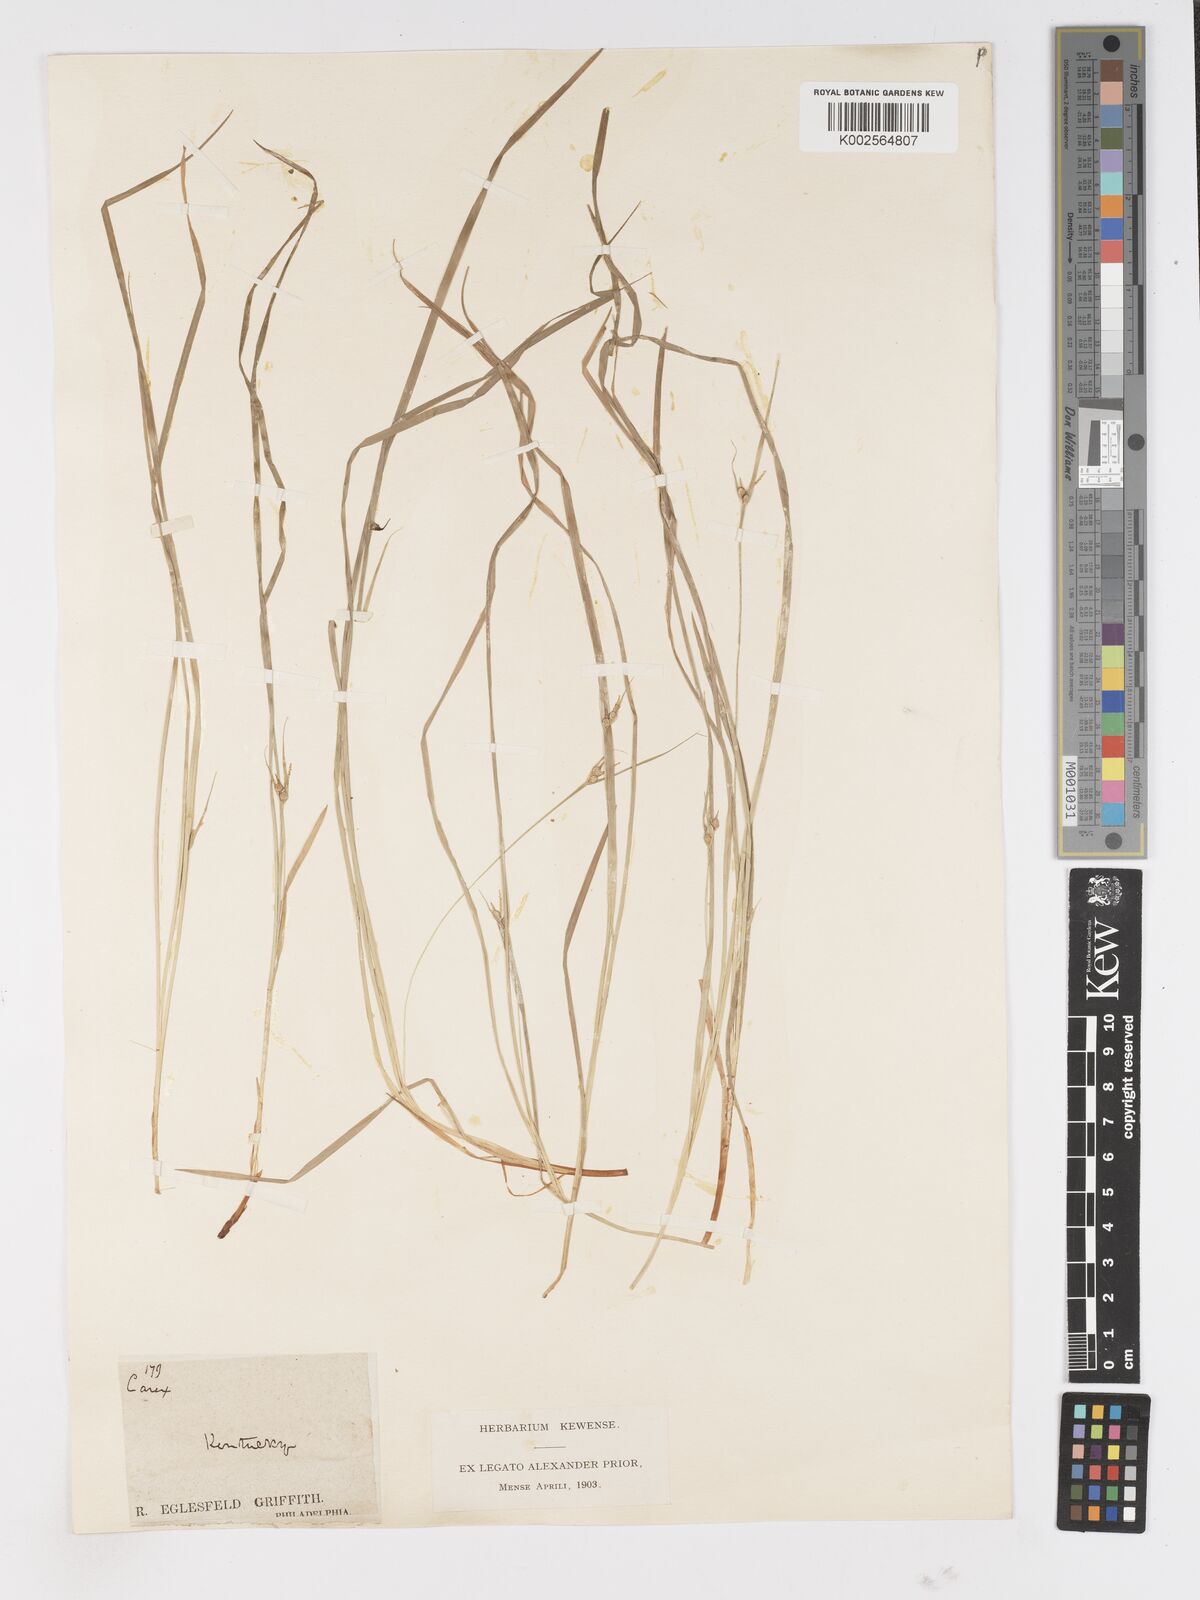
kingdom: Plantae
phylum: Tracheophyta
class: Liliopsida
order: Poales
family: Cyperaceae
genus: Carex
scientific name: Carex
